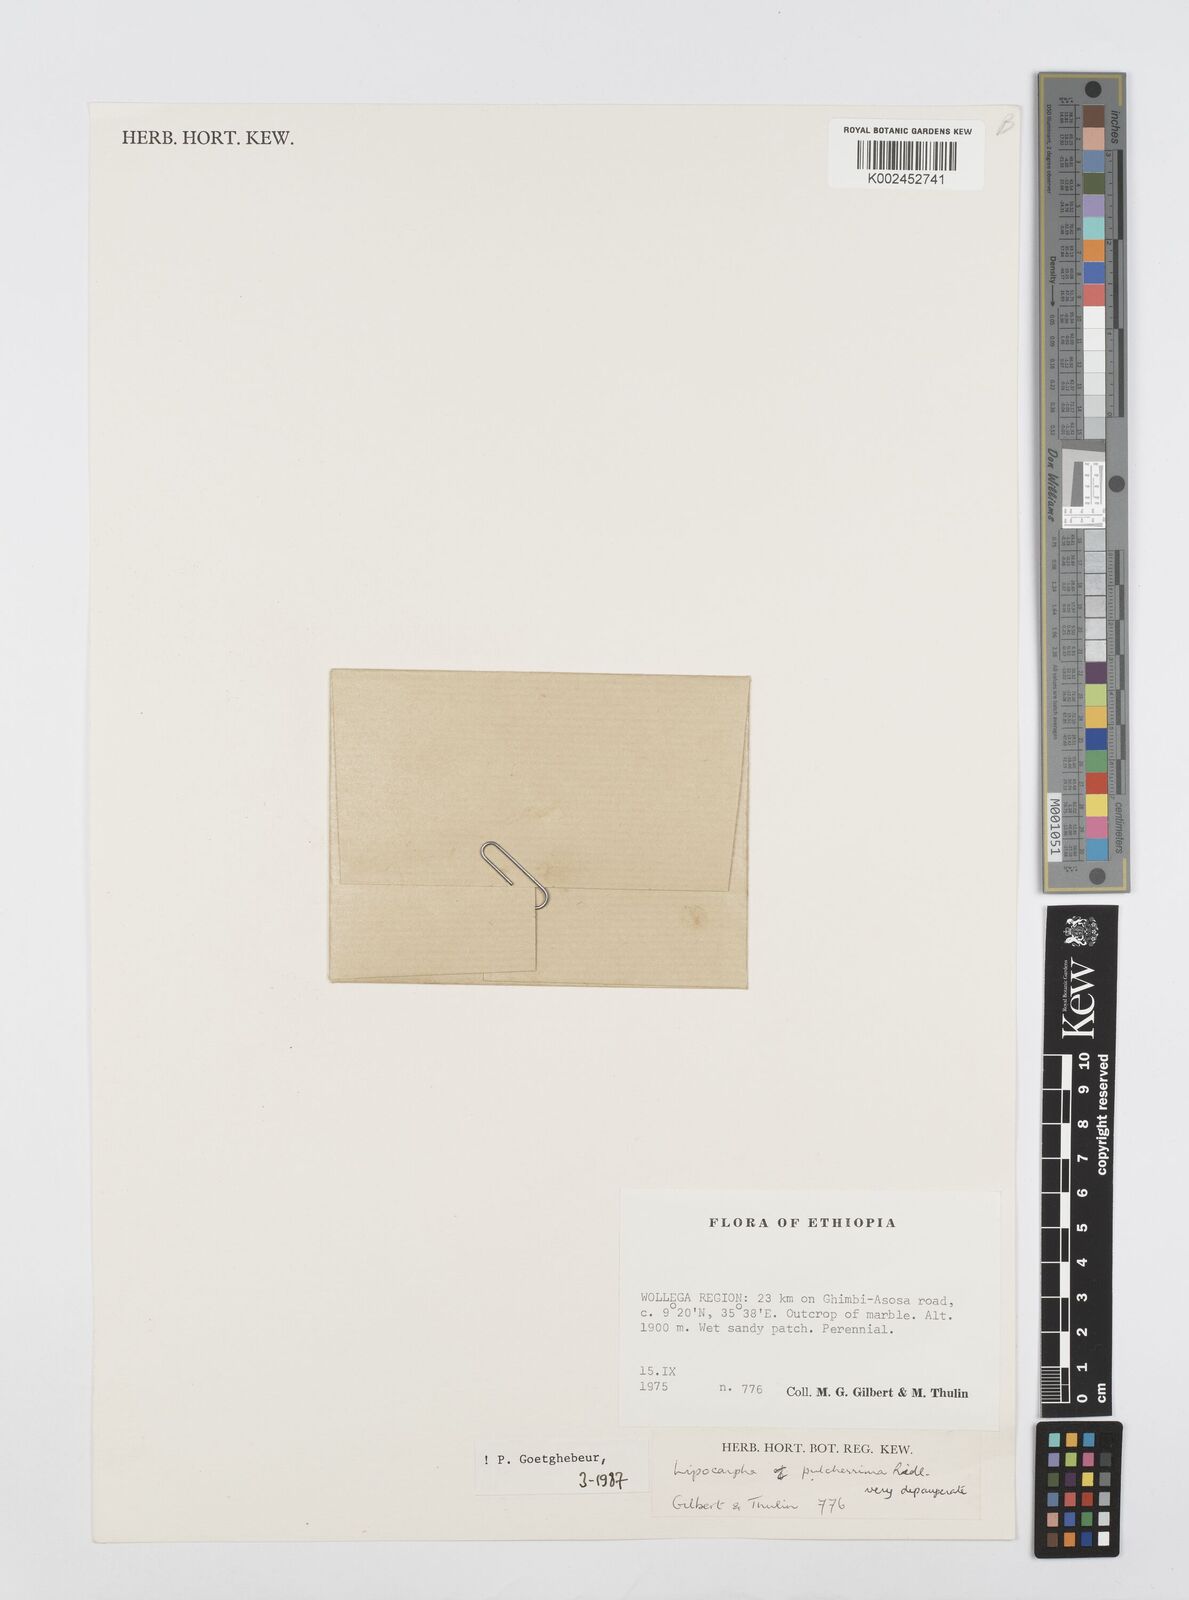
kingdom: Plantae
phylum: Tracheophyta
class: Liliopsida
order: Poales
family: Cyperaceae
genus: Cyperus
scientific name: Cyperus nanus
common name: Indian flatsedge
